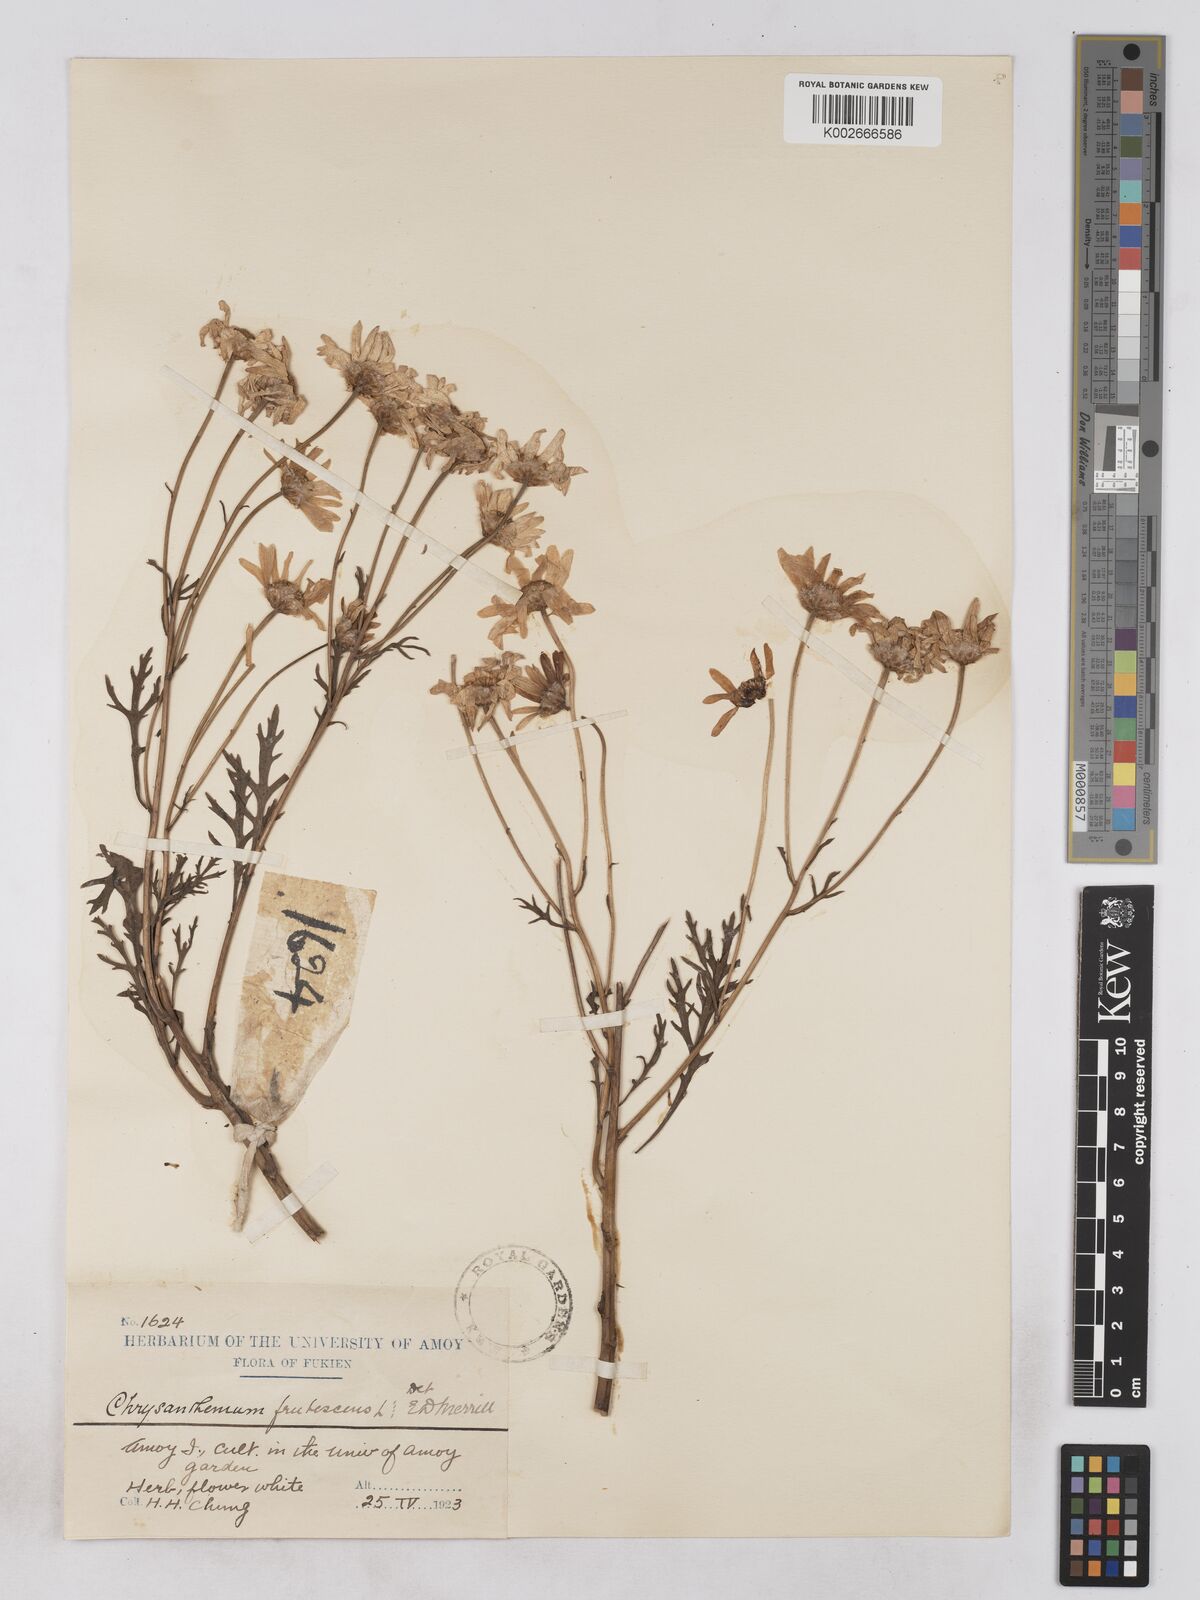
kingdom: Plantae
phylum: Tracheophyta
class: Magnoliopsida
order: Asterales
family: Asteraceae
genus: Argyranthemum
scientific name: Argyranthemum frutescens
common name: Paris daisy
